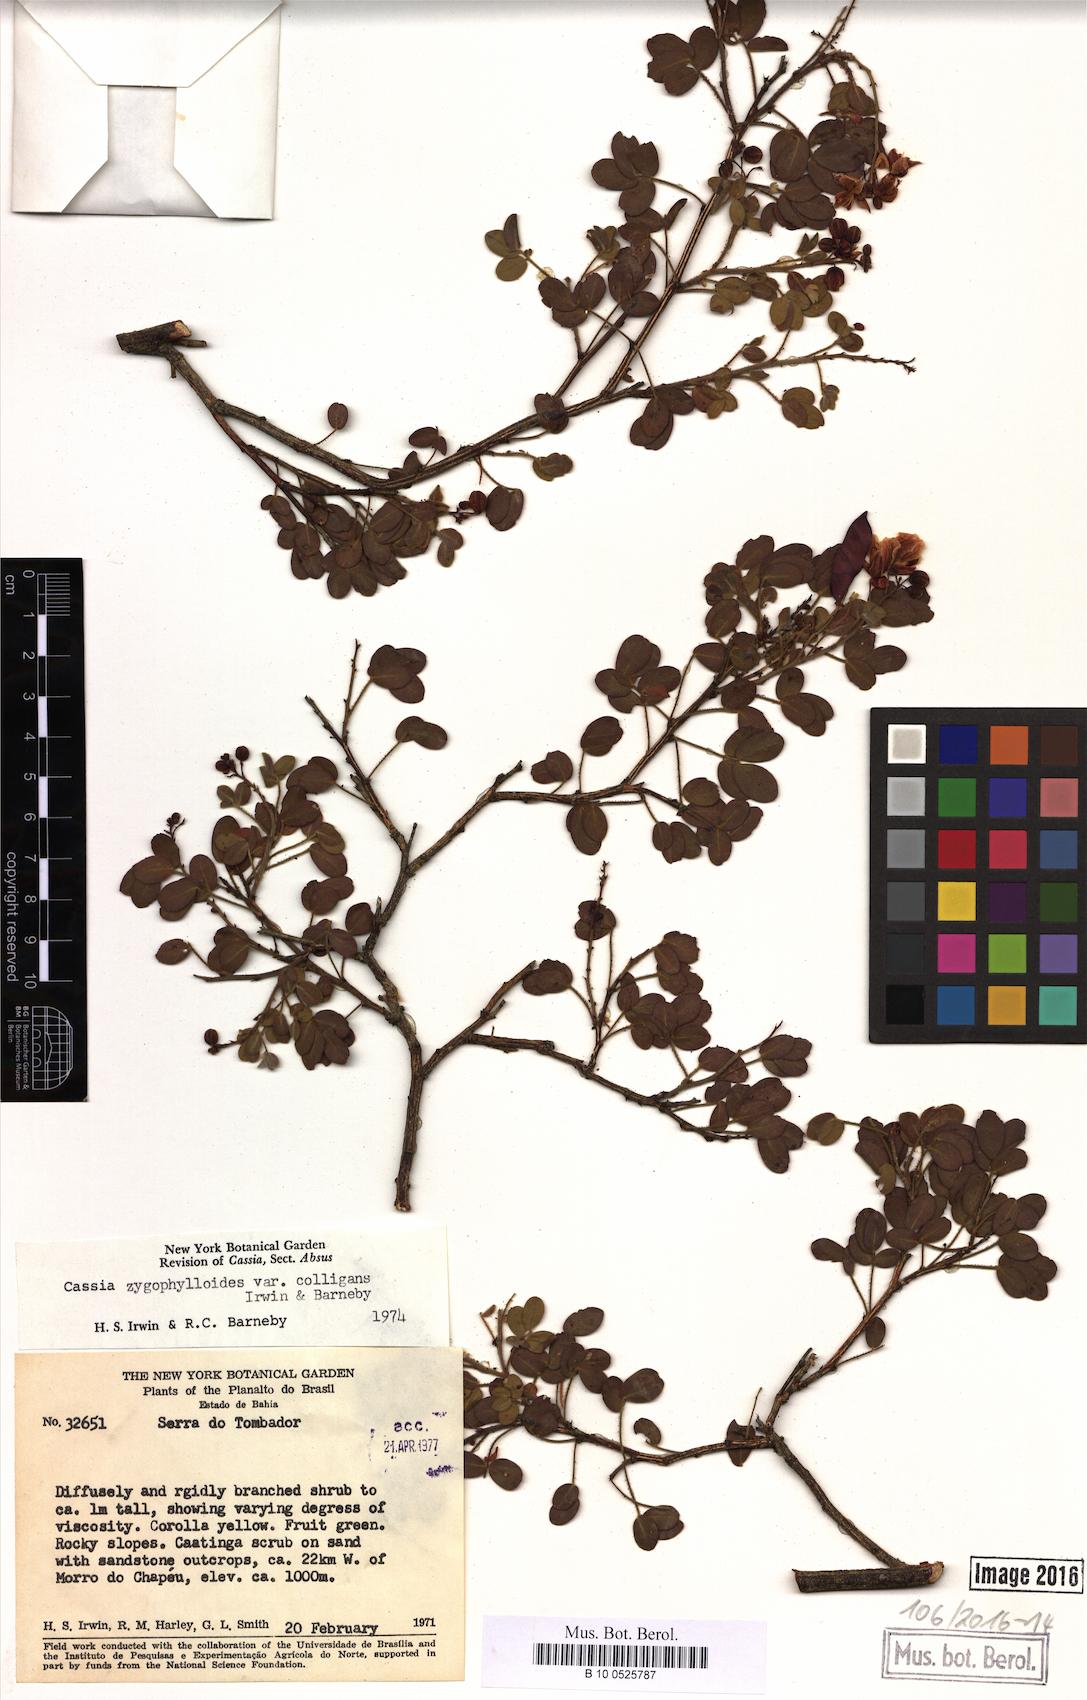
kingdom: Plantae
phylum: Tracheophyta
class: Magnoliopsida
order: Fabales
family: Fabaceae
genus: Chamaecrista
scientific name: Chamaecrista zygophylloides
